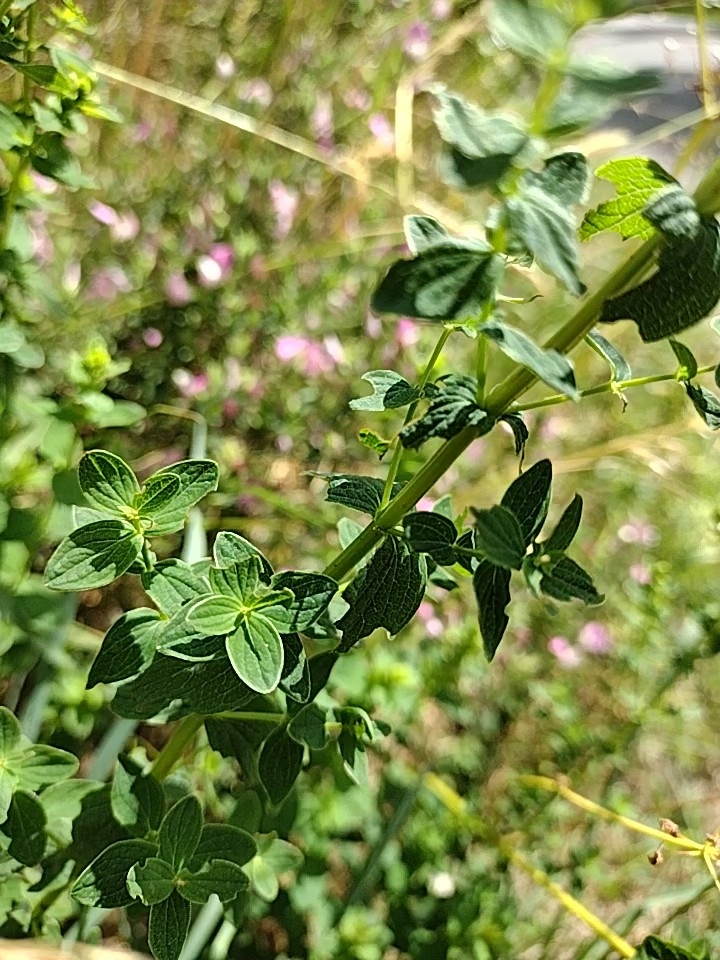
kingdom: Plantae
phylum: Tracheophyta
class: Magnoliopsida
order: Malpighiales
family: Hypericaceae
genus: Hypericum
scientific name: Hypericum maculatum
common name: Kantet perikon
